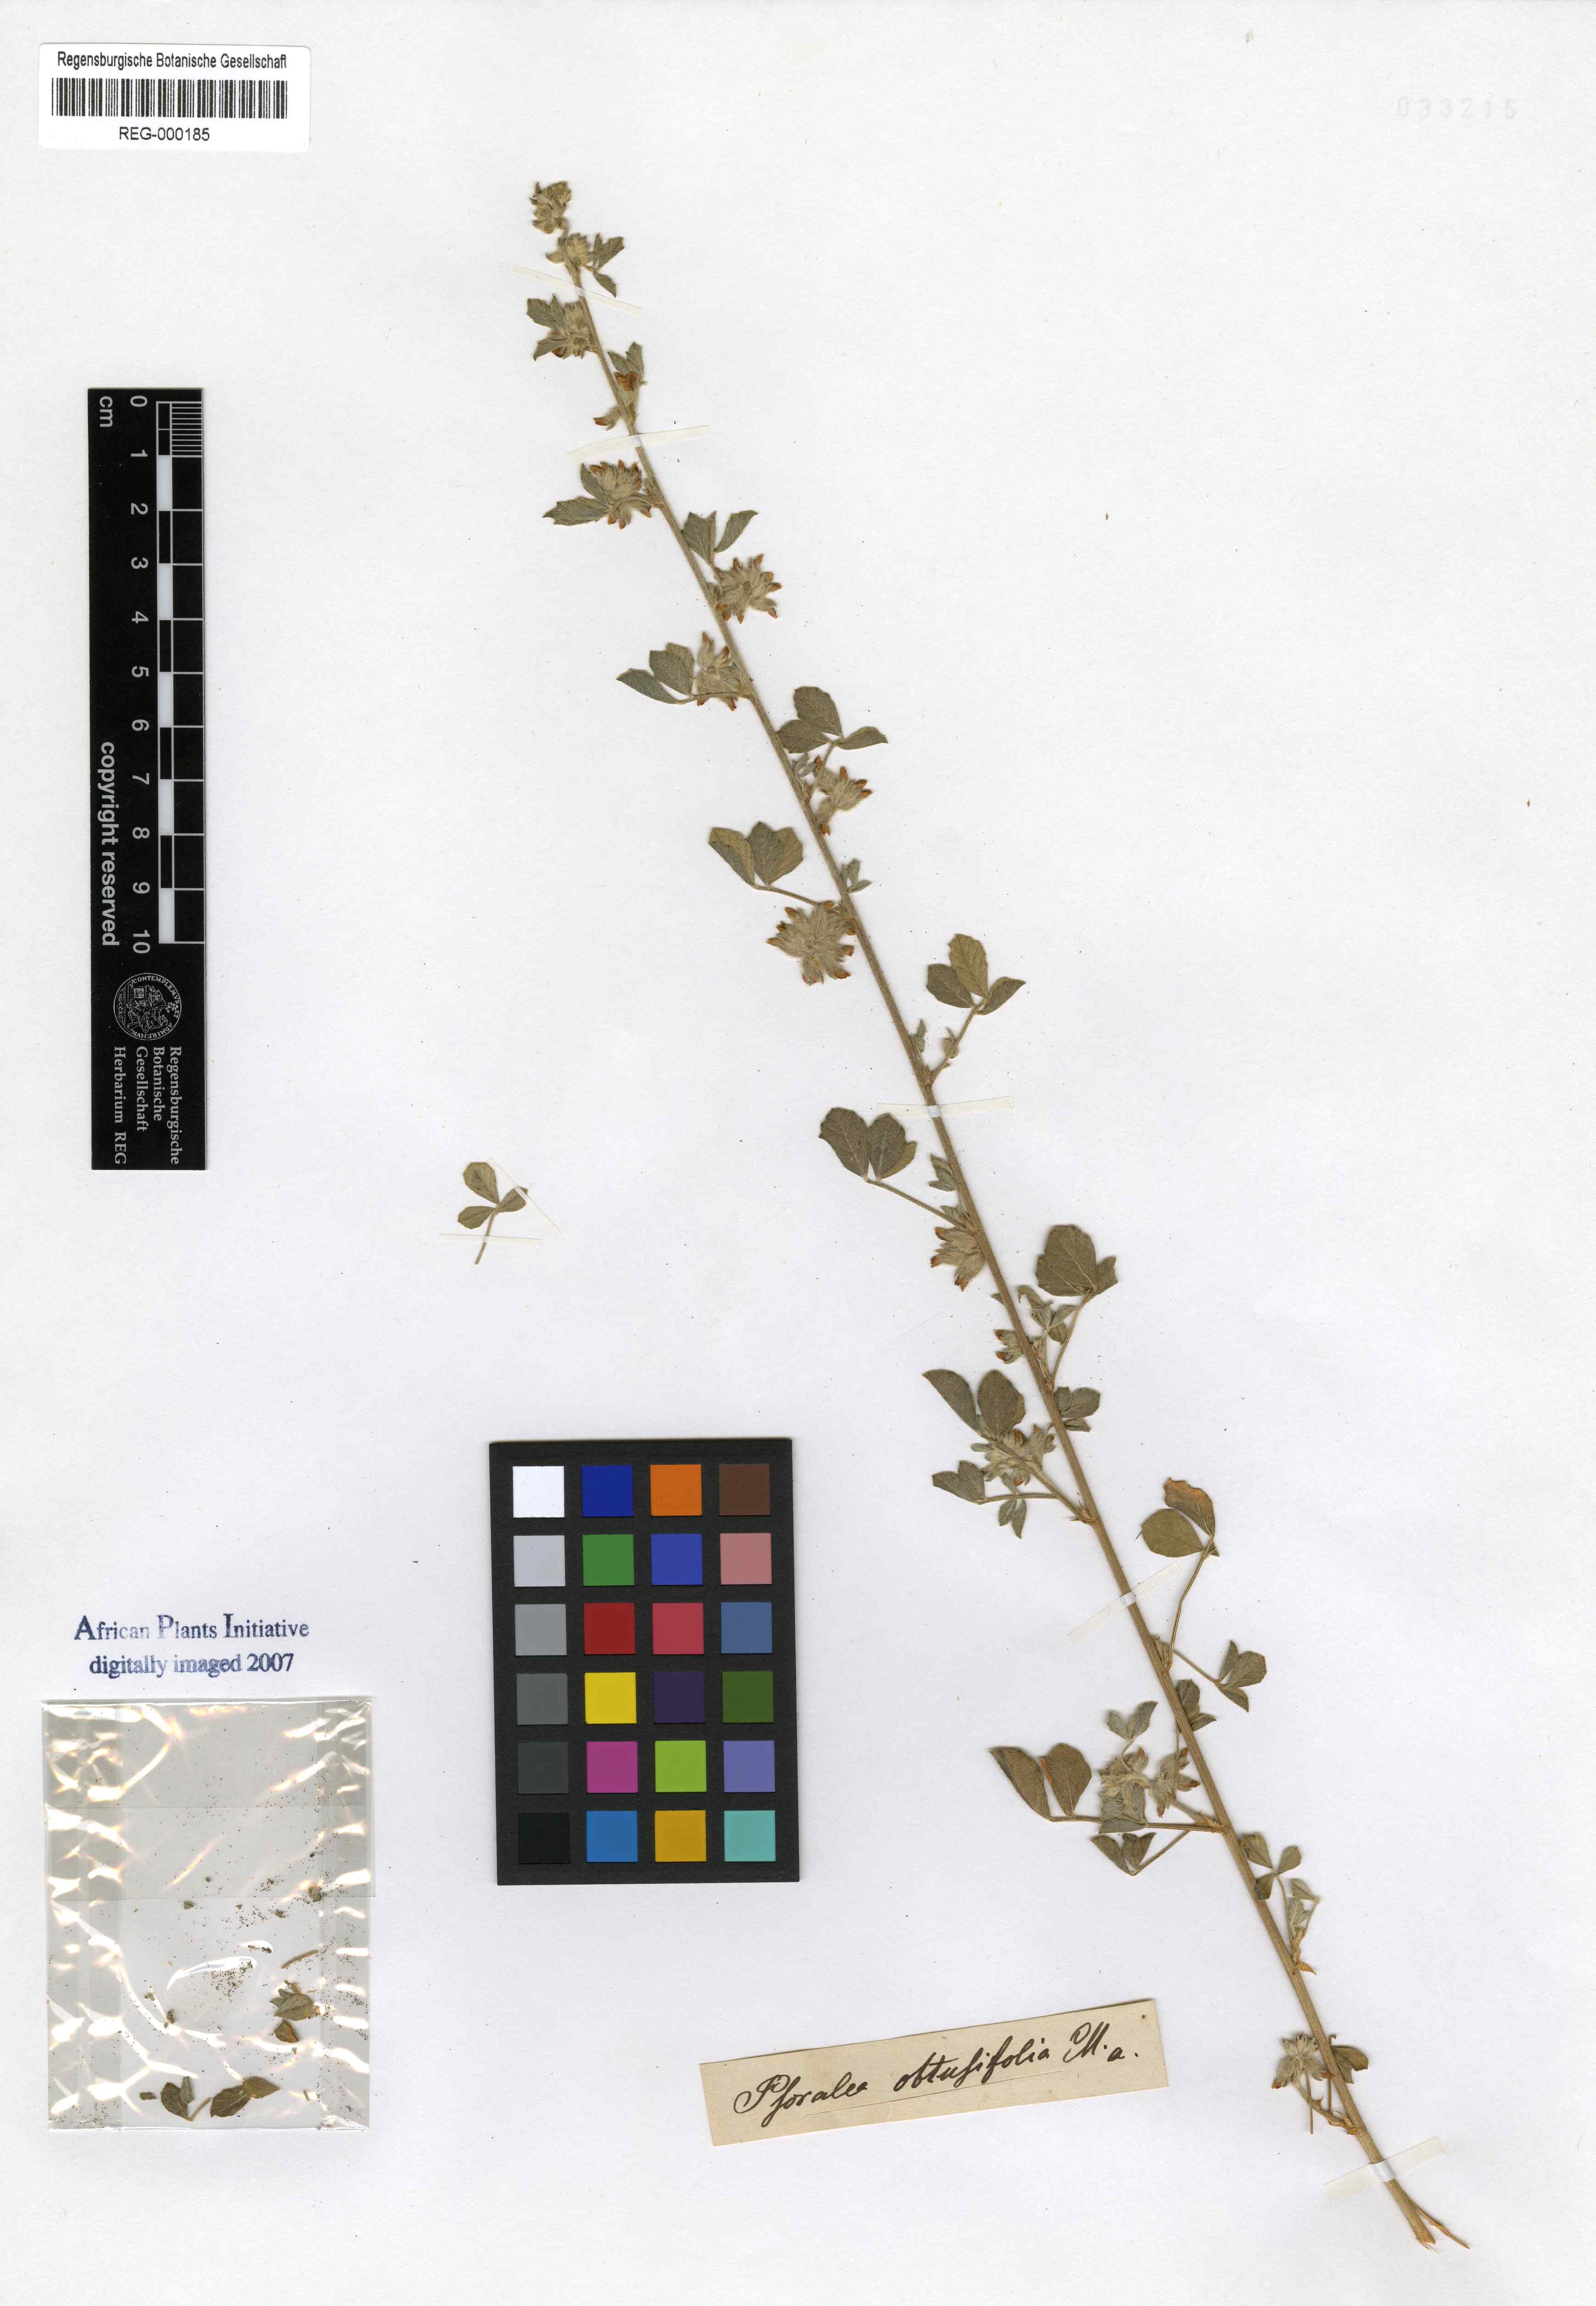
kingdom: Plantae
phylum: Tracheophyta
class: Magnoliopsida
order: Fabales
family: Fabaceae
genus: Cullen
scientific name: Cullen tomentosum
